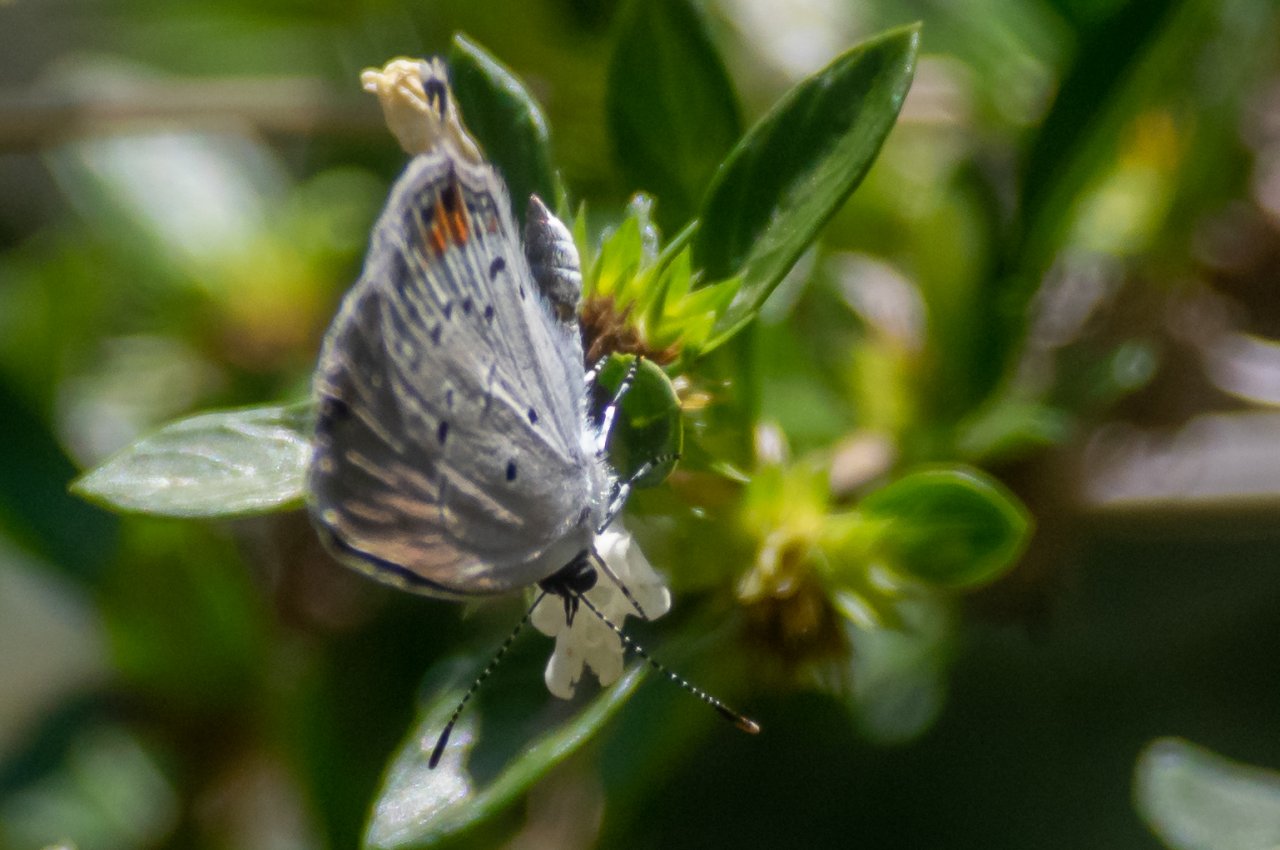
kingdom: Animalia
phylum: Arthropoda
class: Insecta
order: Lepidoptera
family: Lycaenidae
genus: Elkalyce
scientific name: Elkalyce comyntas
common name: Eastern Tailed-Blue
